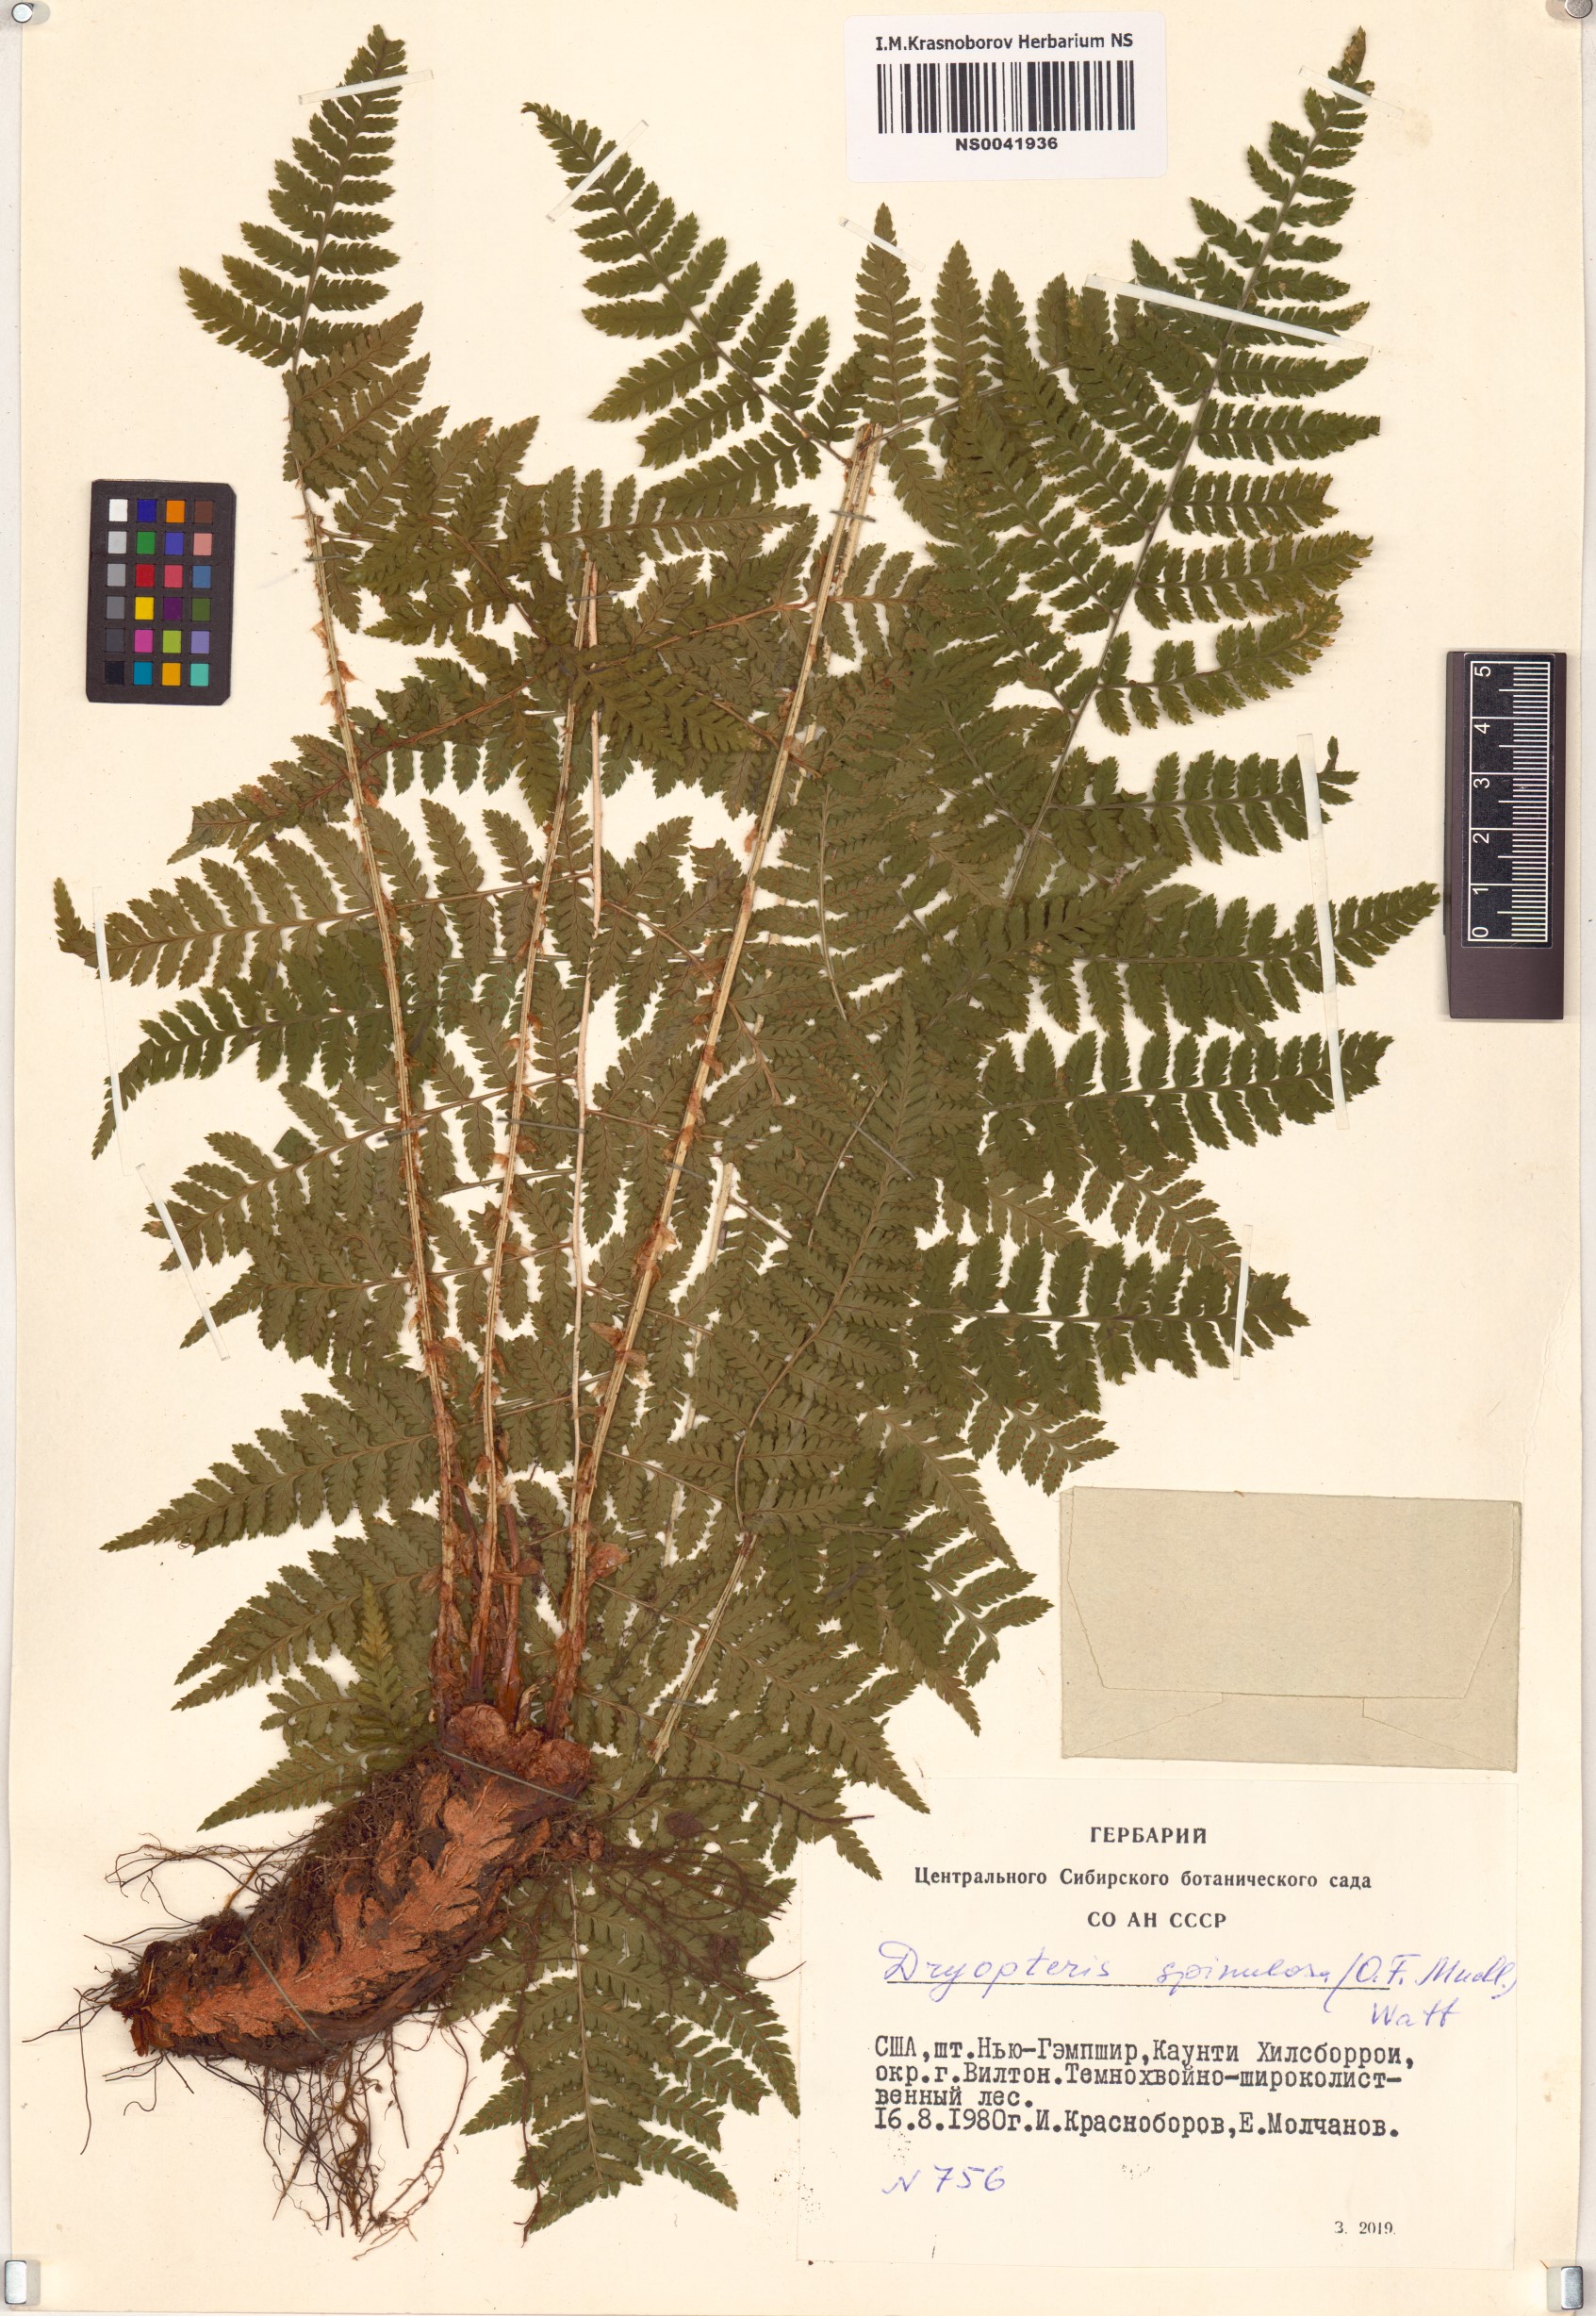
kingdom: Plantae
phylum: Tracheophyta
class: Polypodiopsida
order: Polypodiales
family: Dryopteridaceae
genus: Dryopteris
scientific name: Dryopteris carthusiana
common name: Narrow buckler-fern
